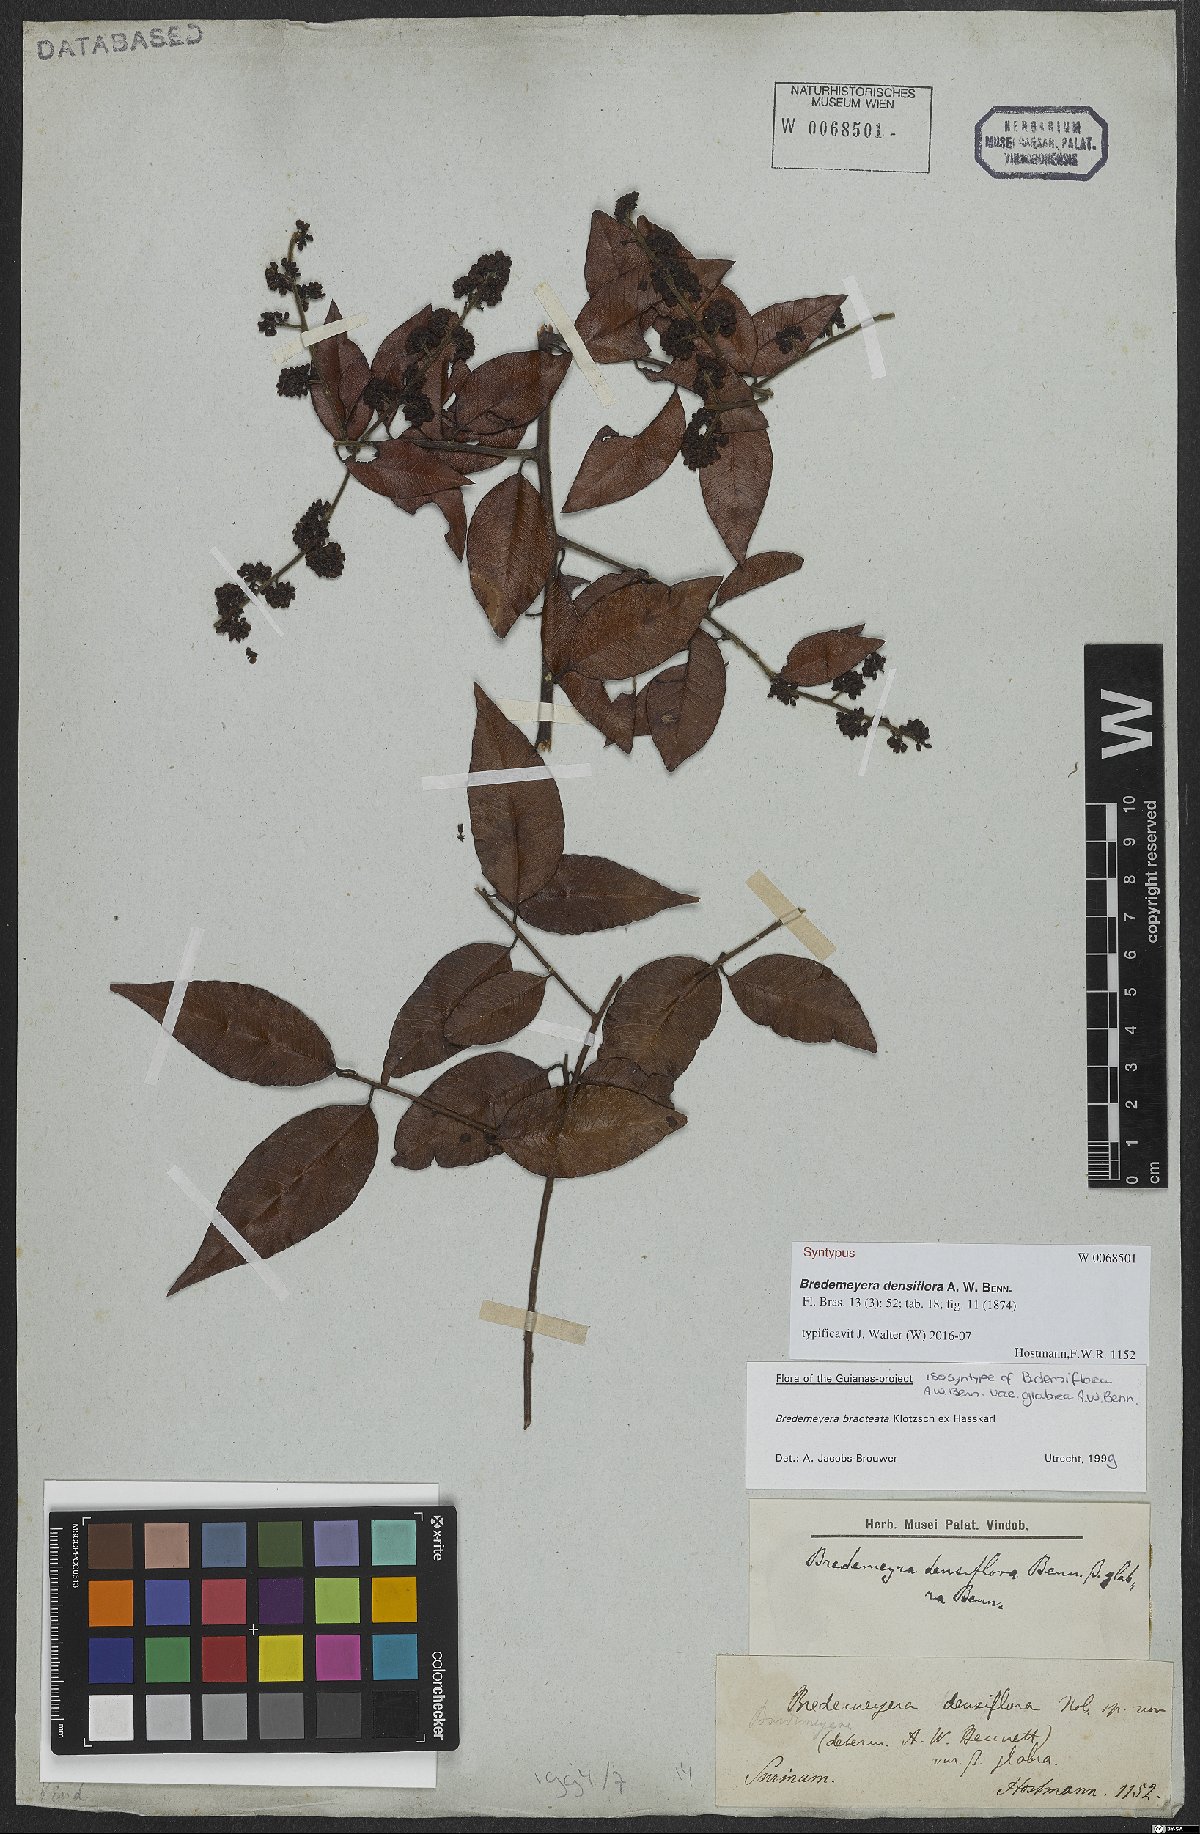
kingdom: Plantae
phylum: Tracheophyta
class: Magnoliopsida
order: Fabales
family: Polygalaceae
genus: Bredemeyera
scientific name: Bredemeyera bracteata
